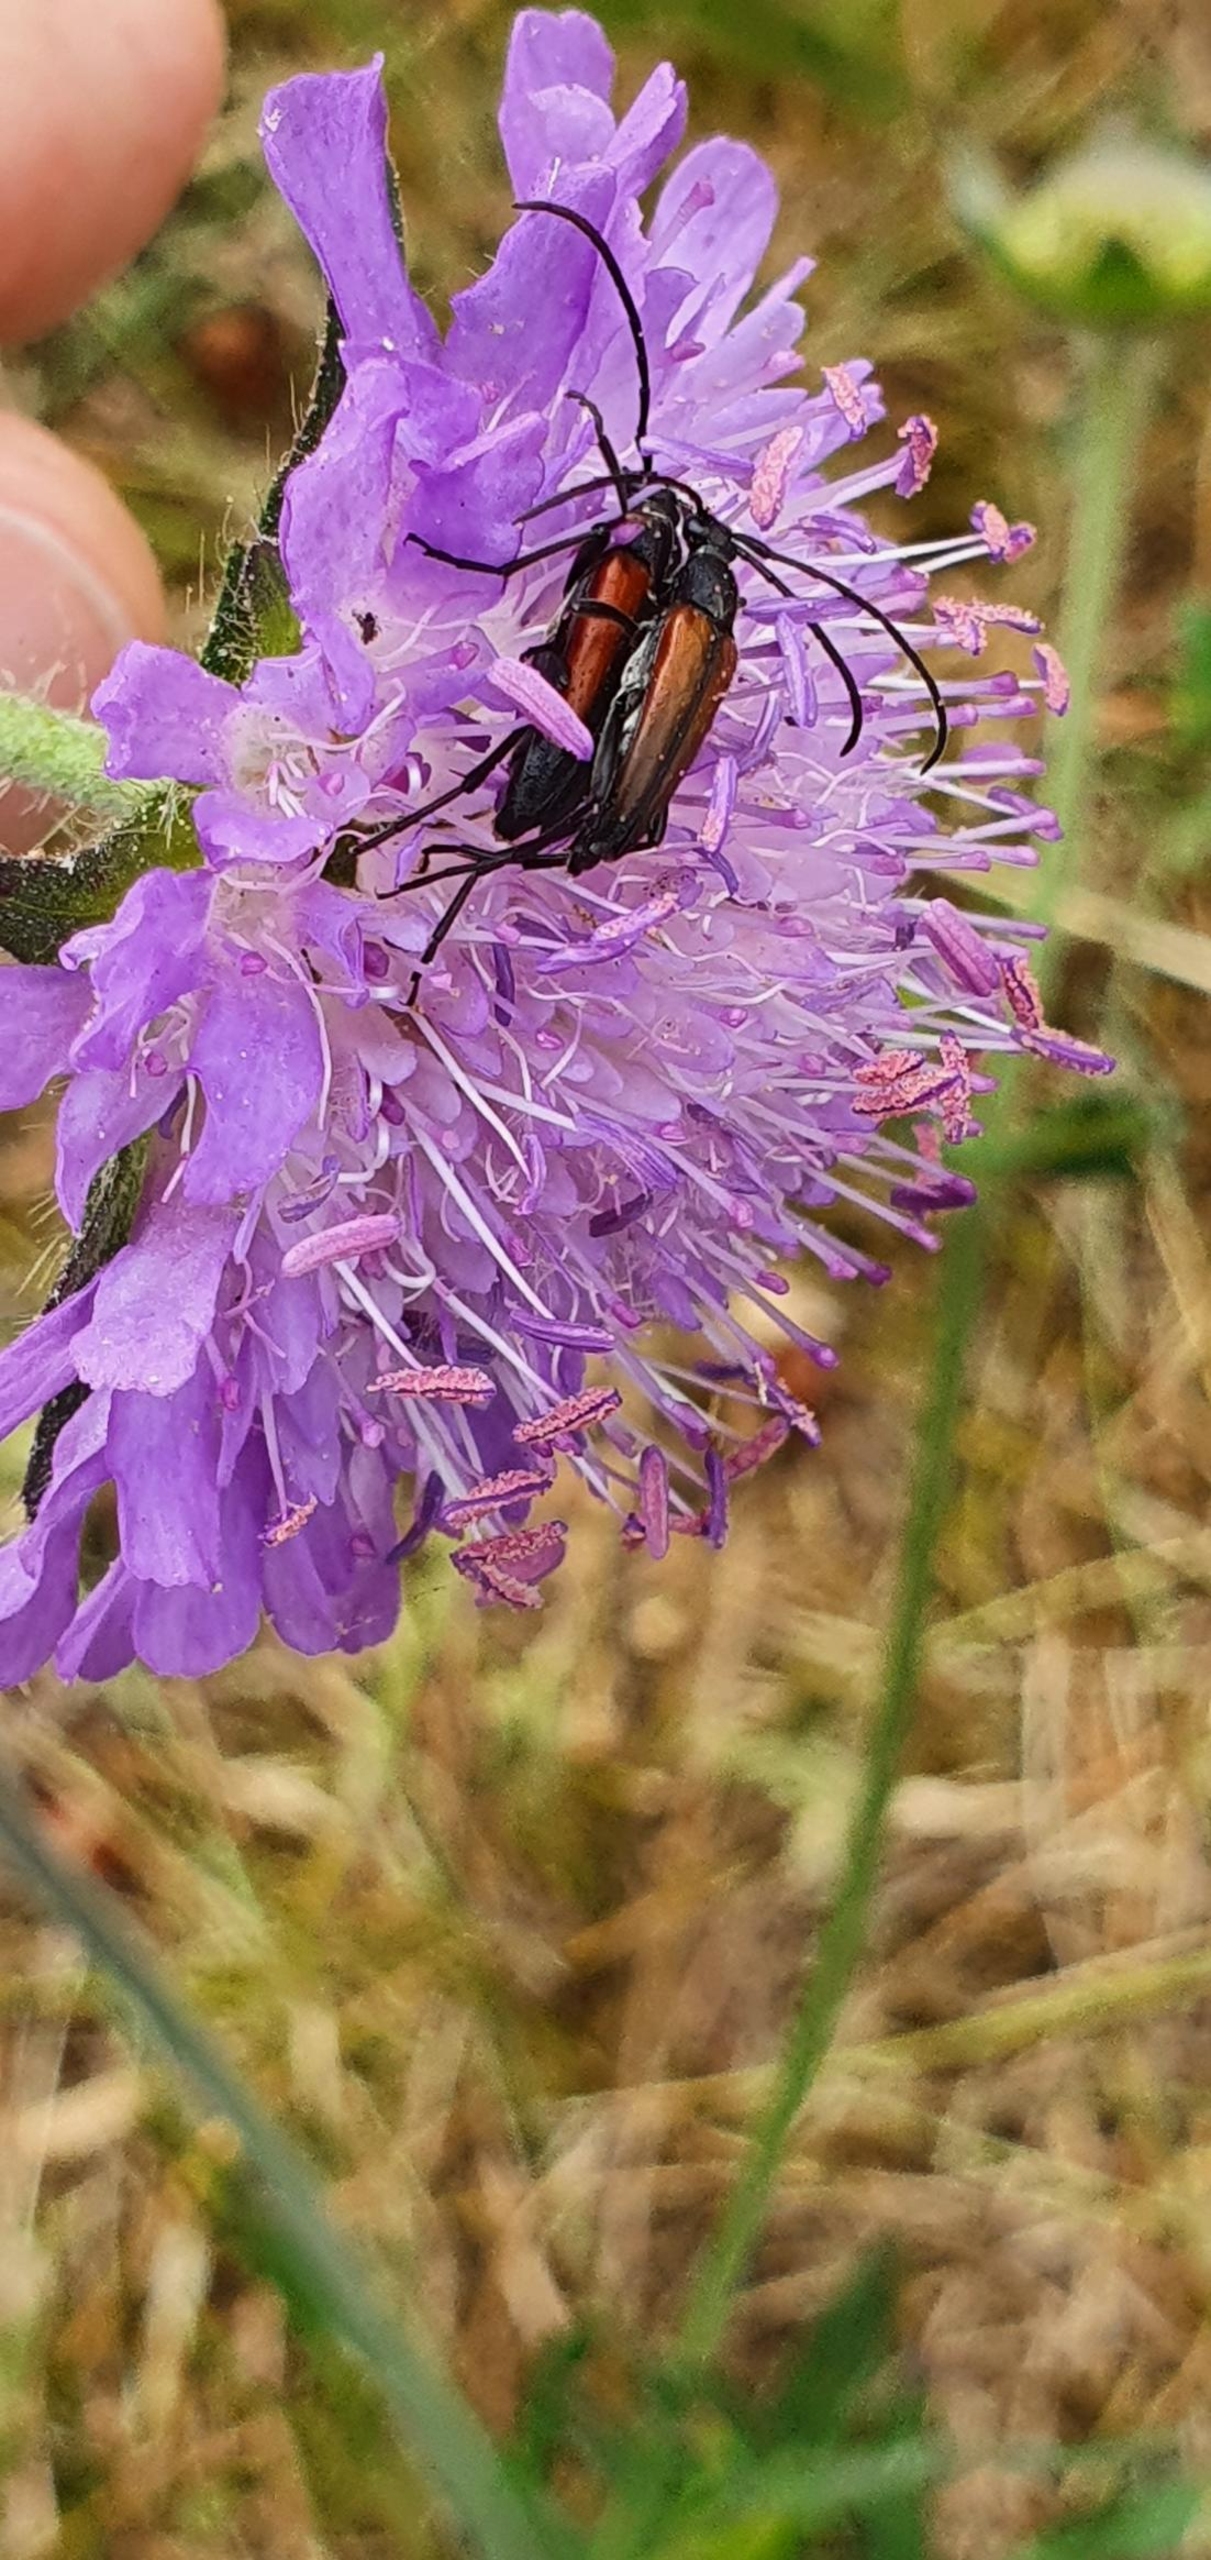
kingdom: Animalia
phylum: Arthropoda
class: Insecta
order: Coleoptera
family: Cerambycidae
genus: Stenurella
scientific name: Stenurella melanura
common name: Sortsømmet blomsterbuk
